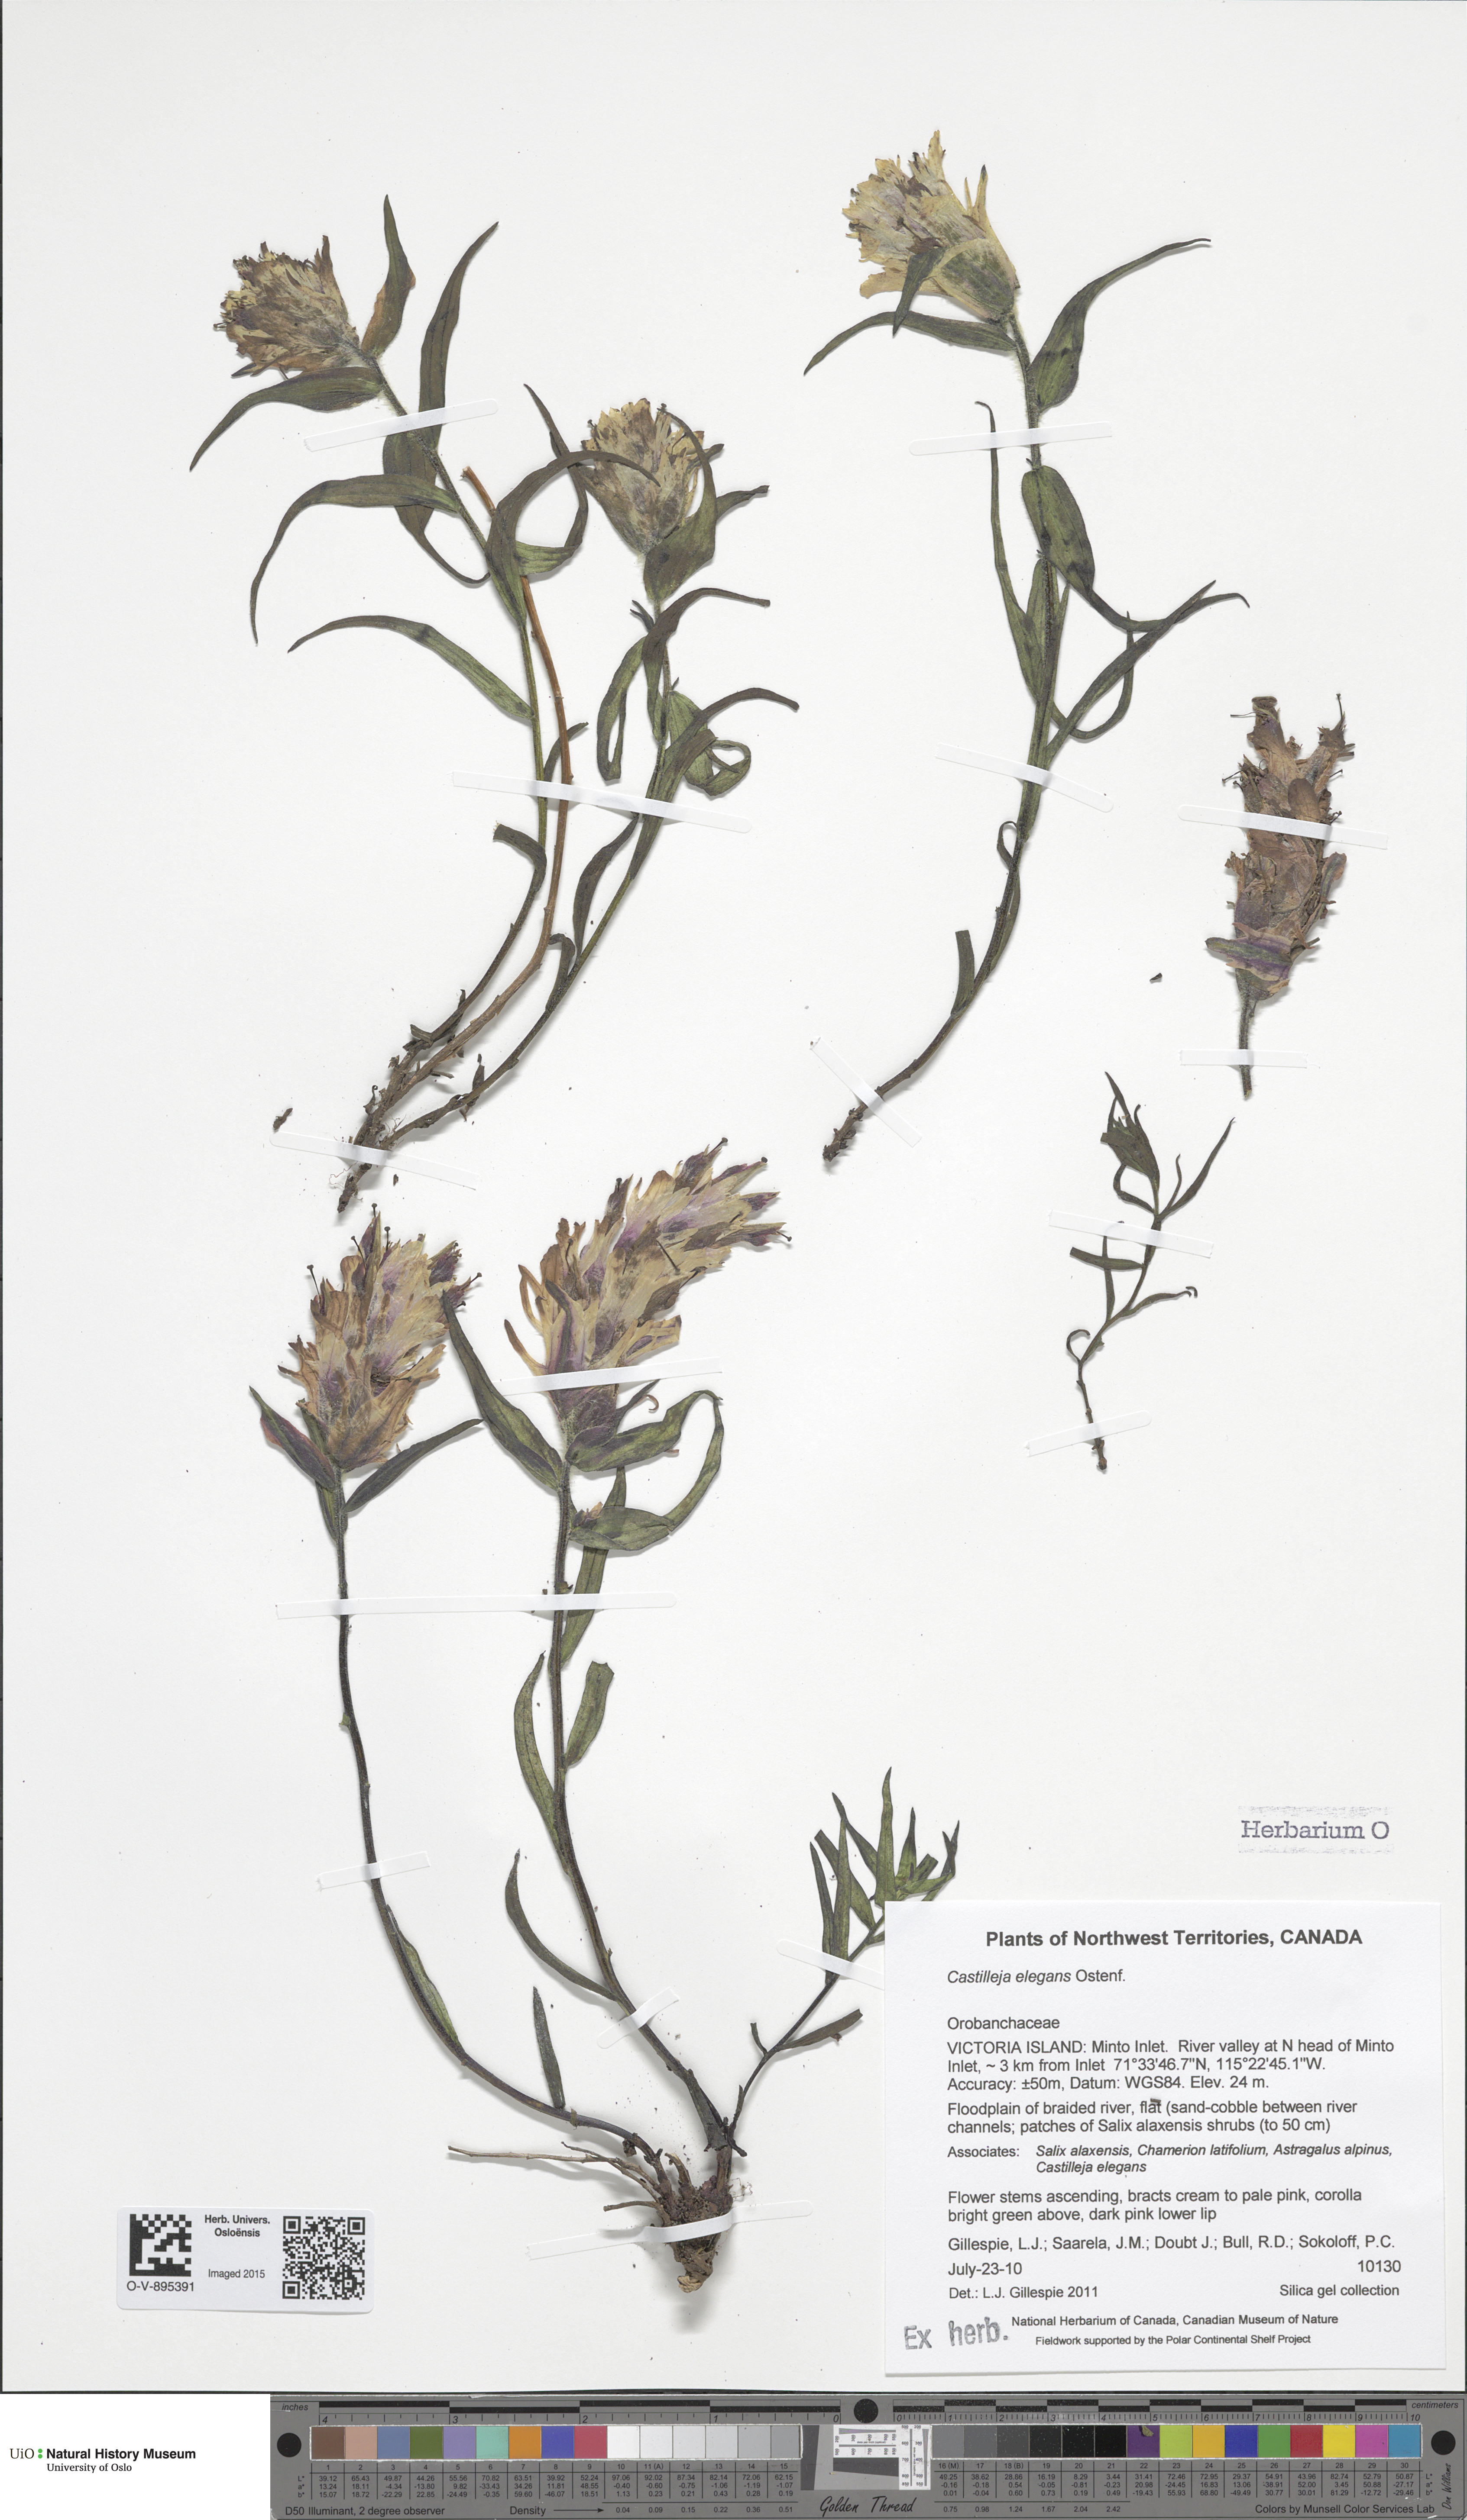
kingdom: Plantae
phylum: Tracheophyta
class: Magnoliopsida
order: Lamiales
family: Orobanchaceae
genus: Castilleja
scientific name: Castilleja elegans
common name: Elegant paintbrush
